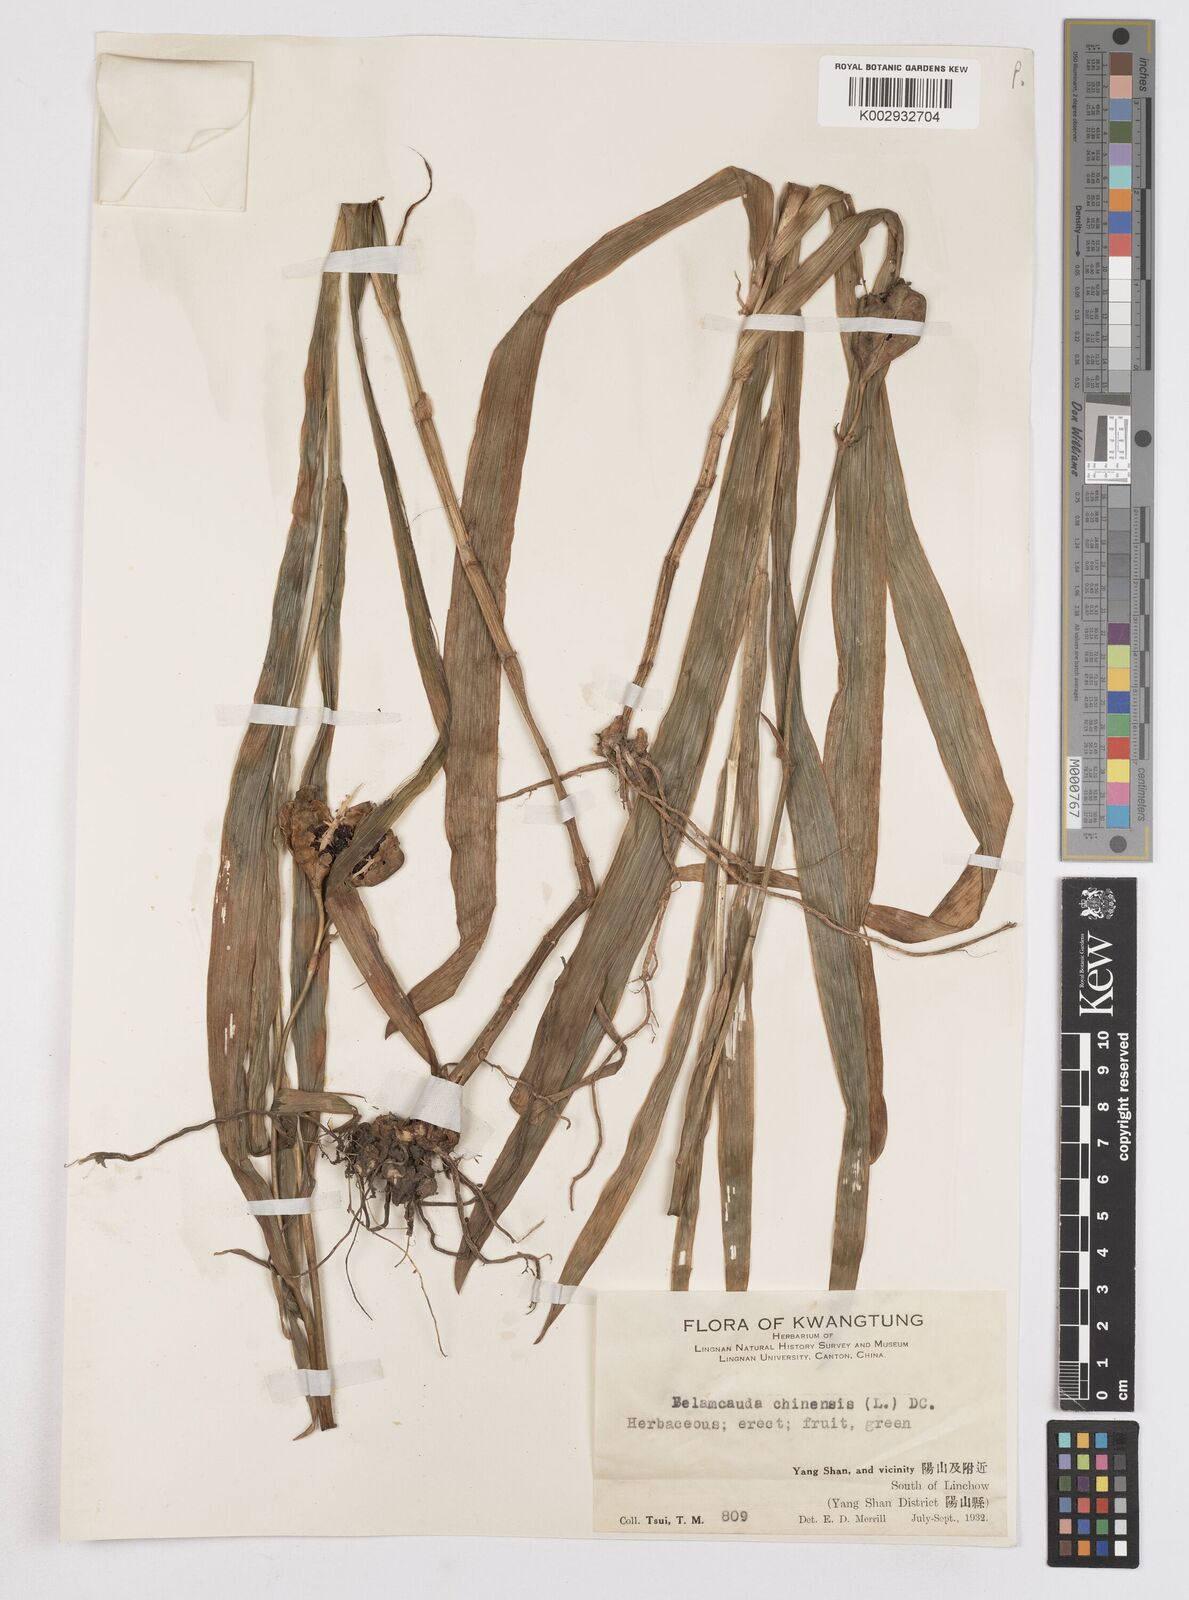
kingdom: Plantae
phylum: Tracheophyta
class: Liliopsida
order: Asparagales
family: Iridaceae
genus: Iris
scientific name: Iris
